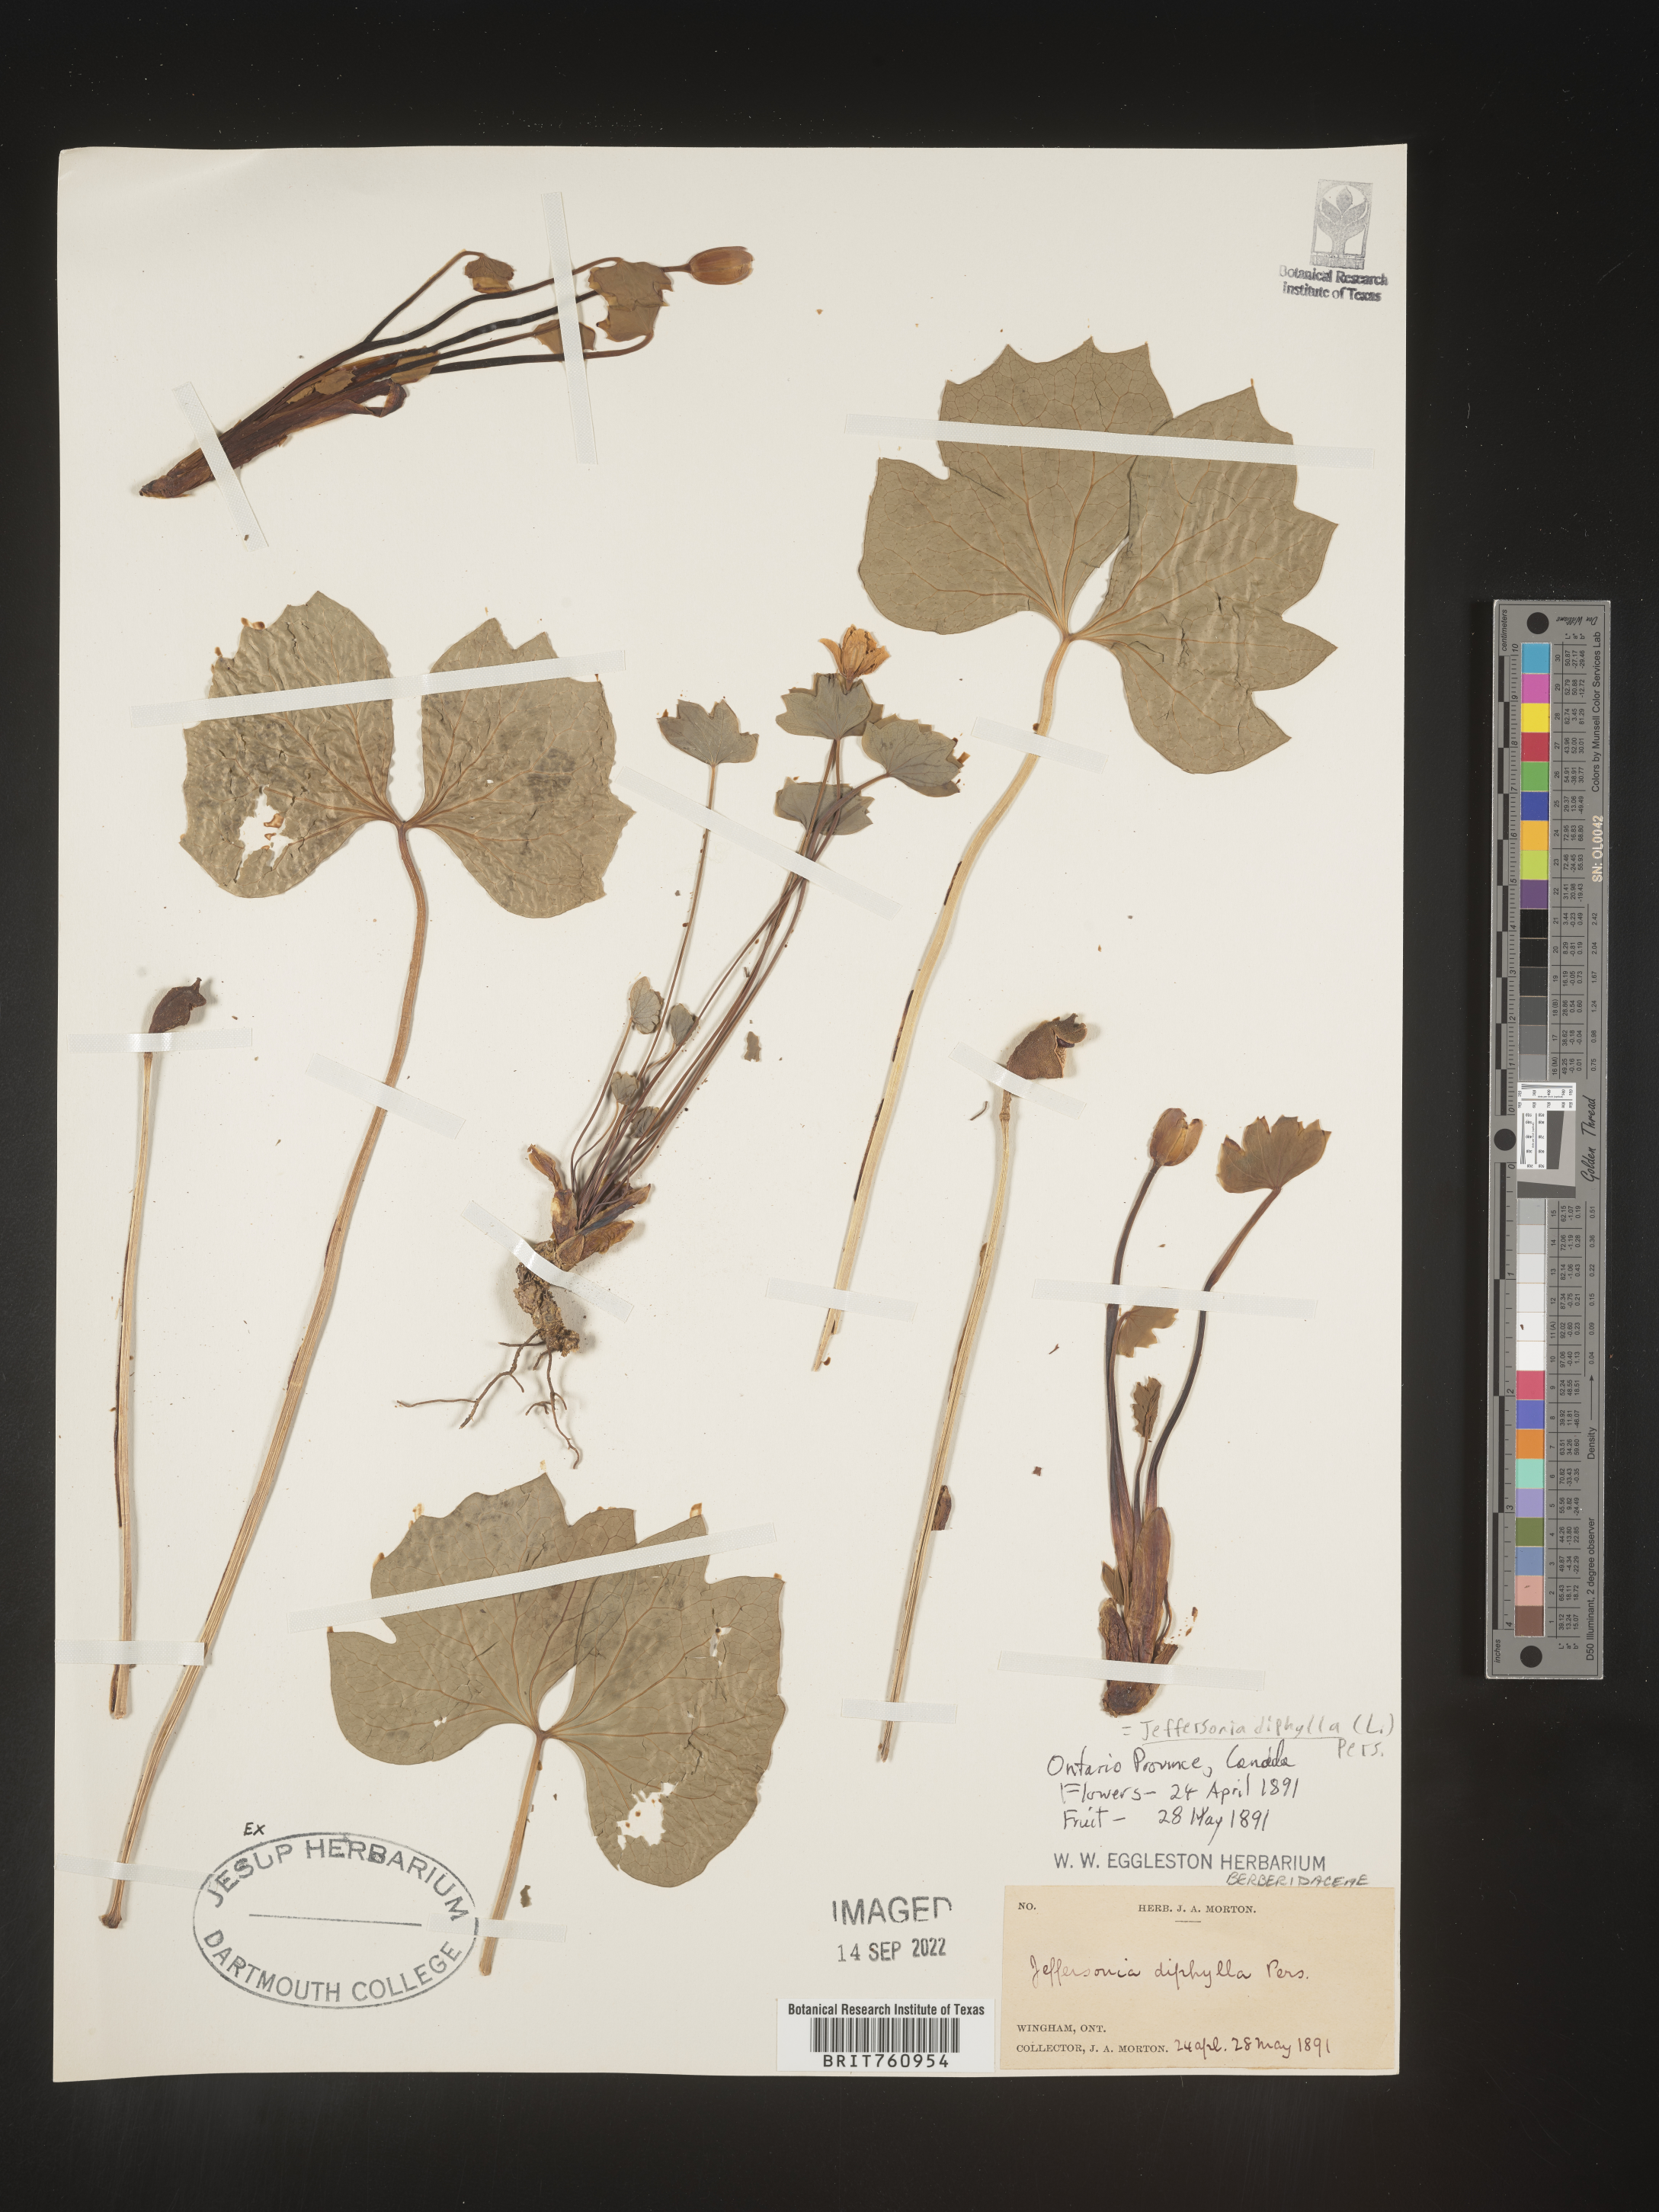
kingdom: Plantae
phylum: Tracheophyta
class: Magnoliopsida
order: Ranunculales
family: Berberidaceae
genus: Jeffersonia
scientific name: Jeffersonia
